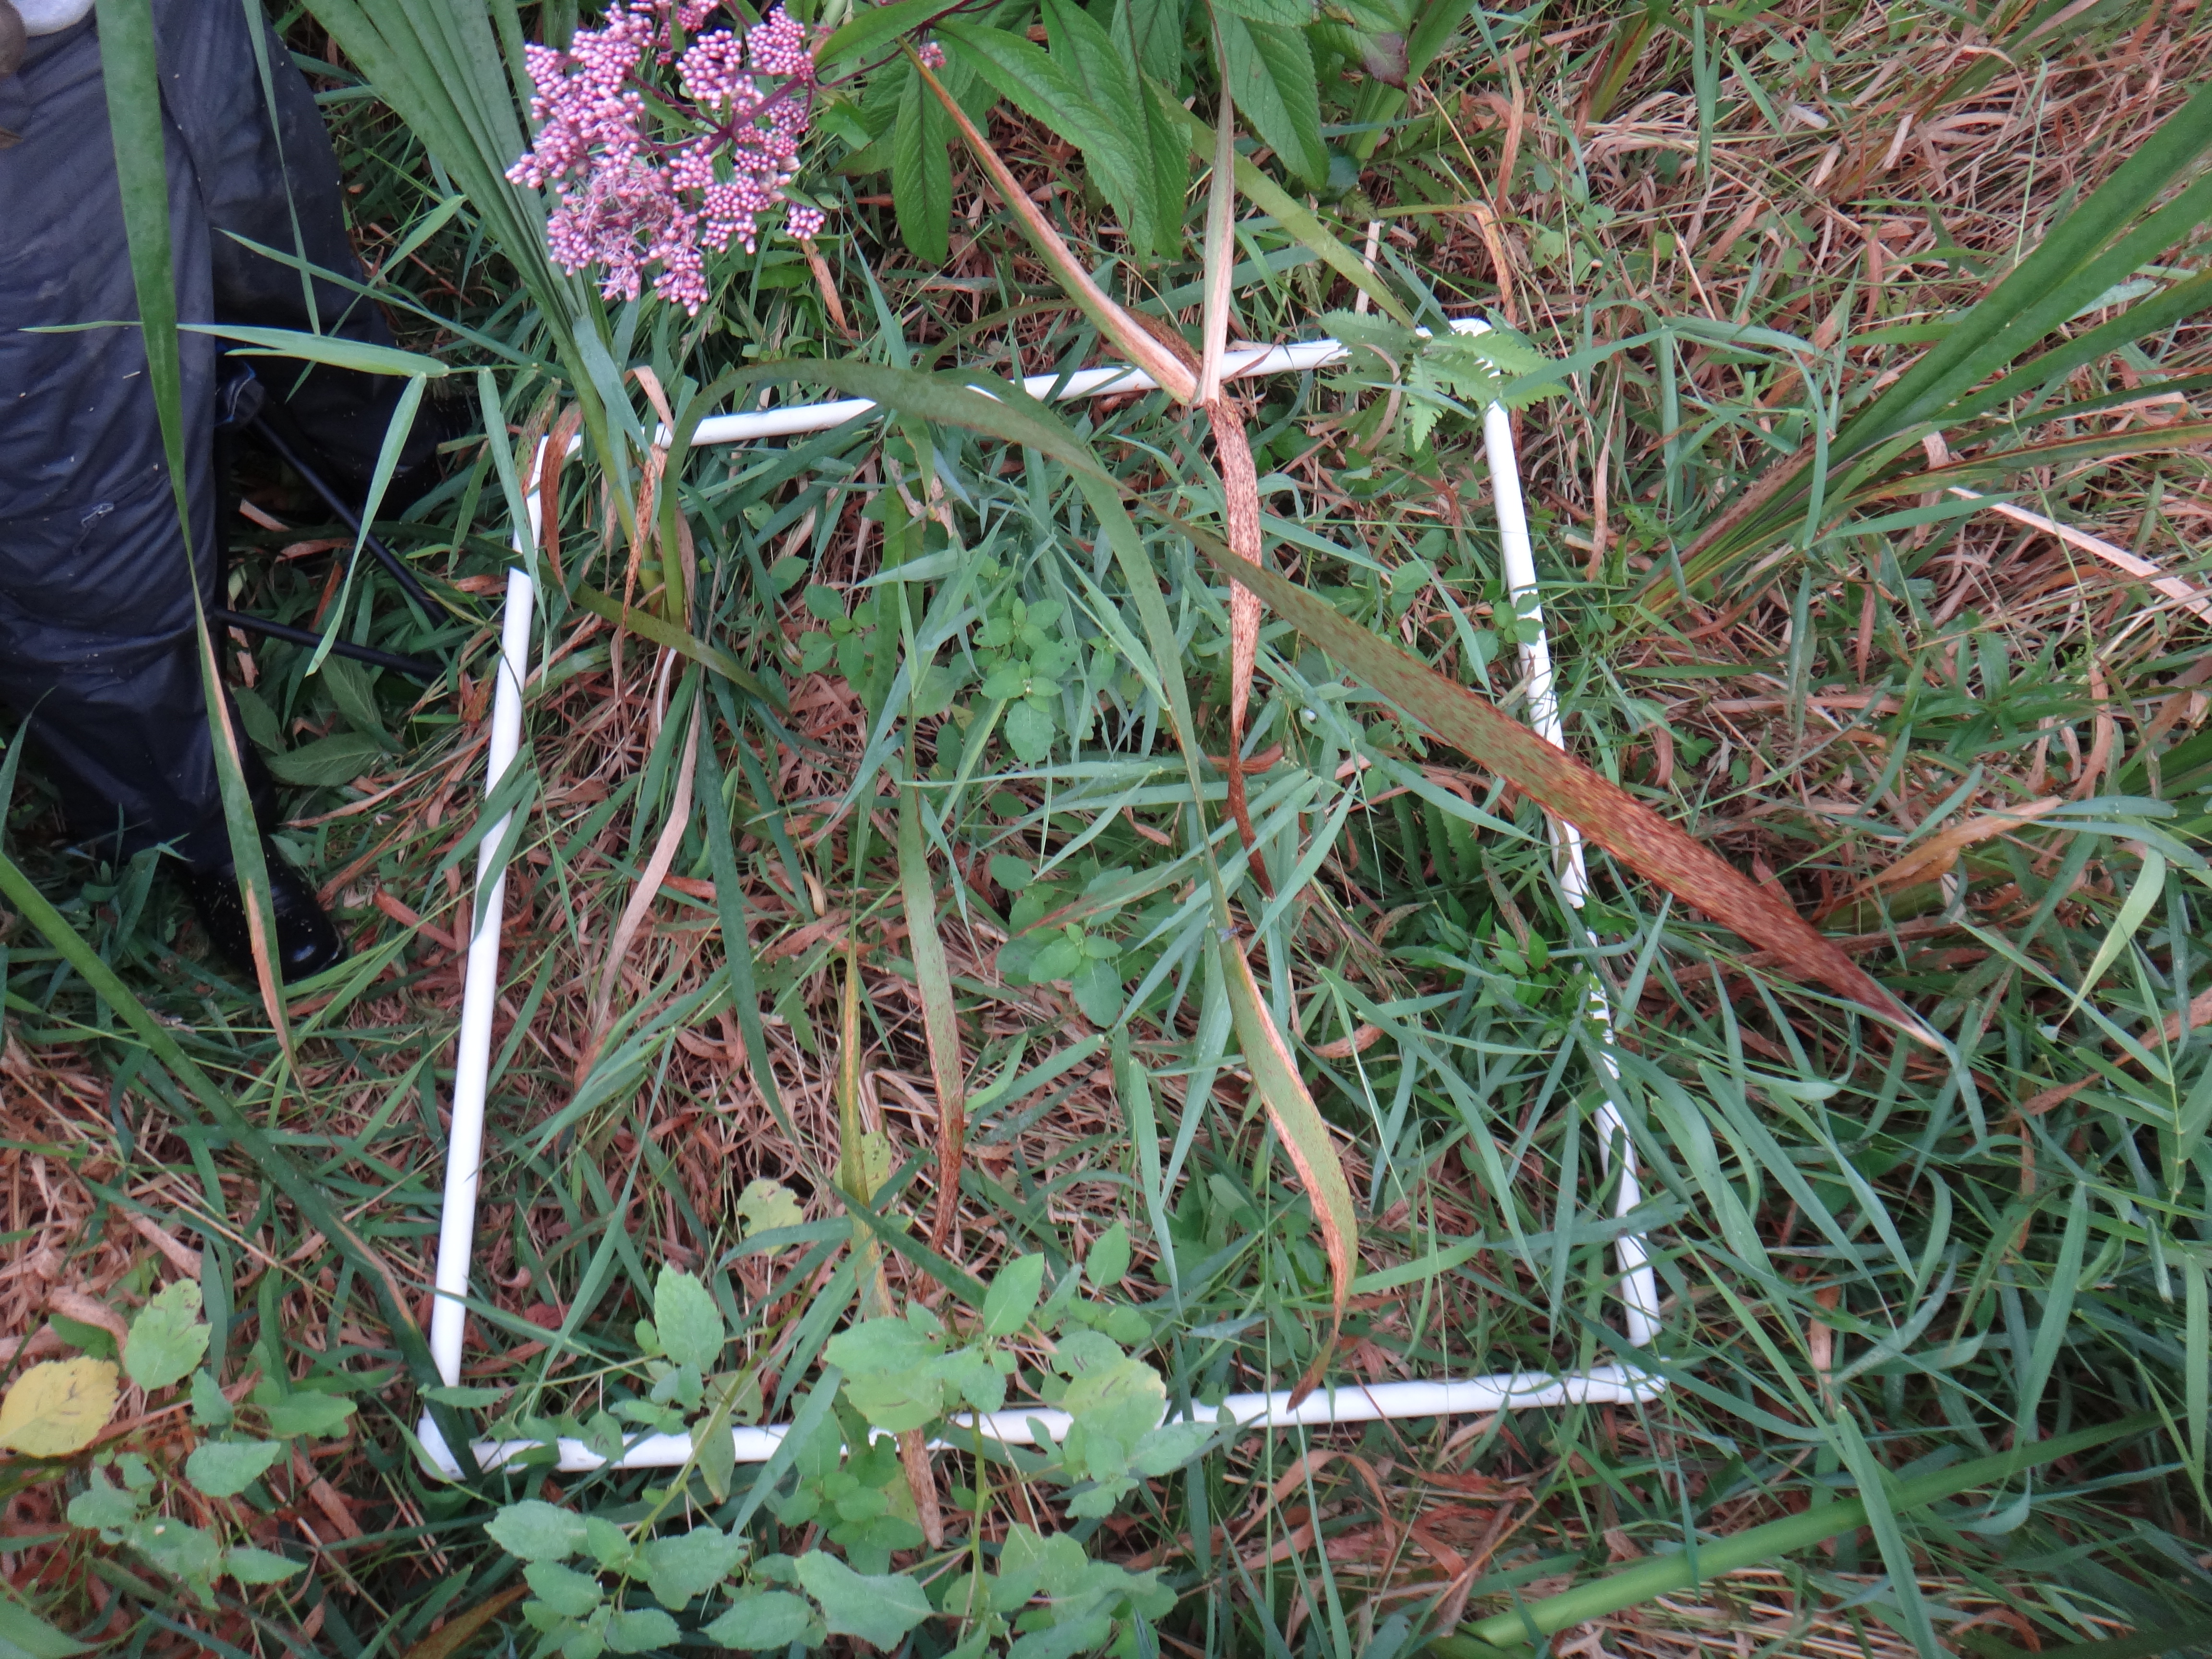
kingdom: Plantae
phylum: Tracheophyta
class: Polypodiopsida
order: Polypodiales
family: Onocleaceae
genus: Onoclea
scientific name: Onoclea sensibilis
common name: Sensitive fern
